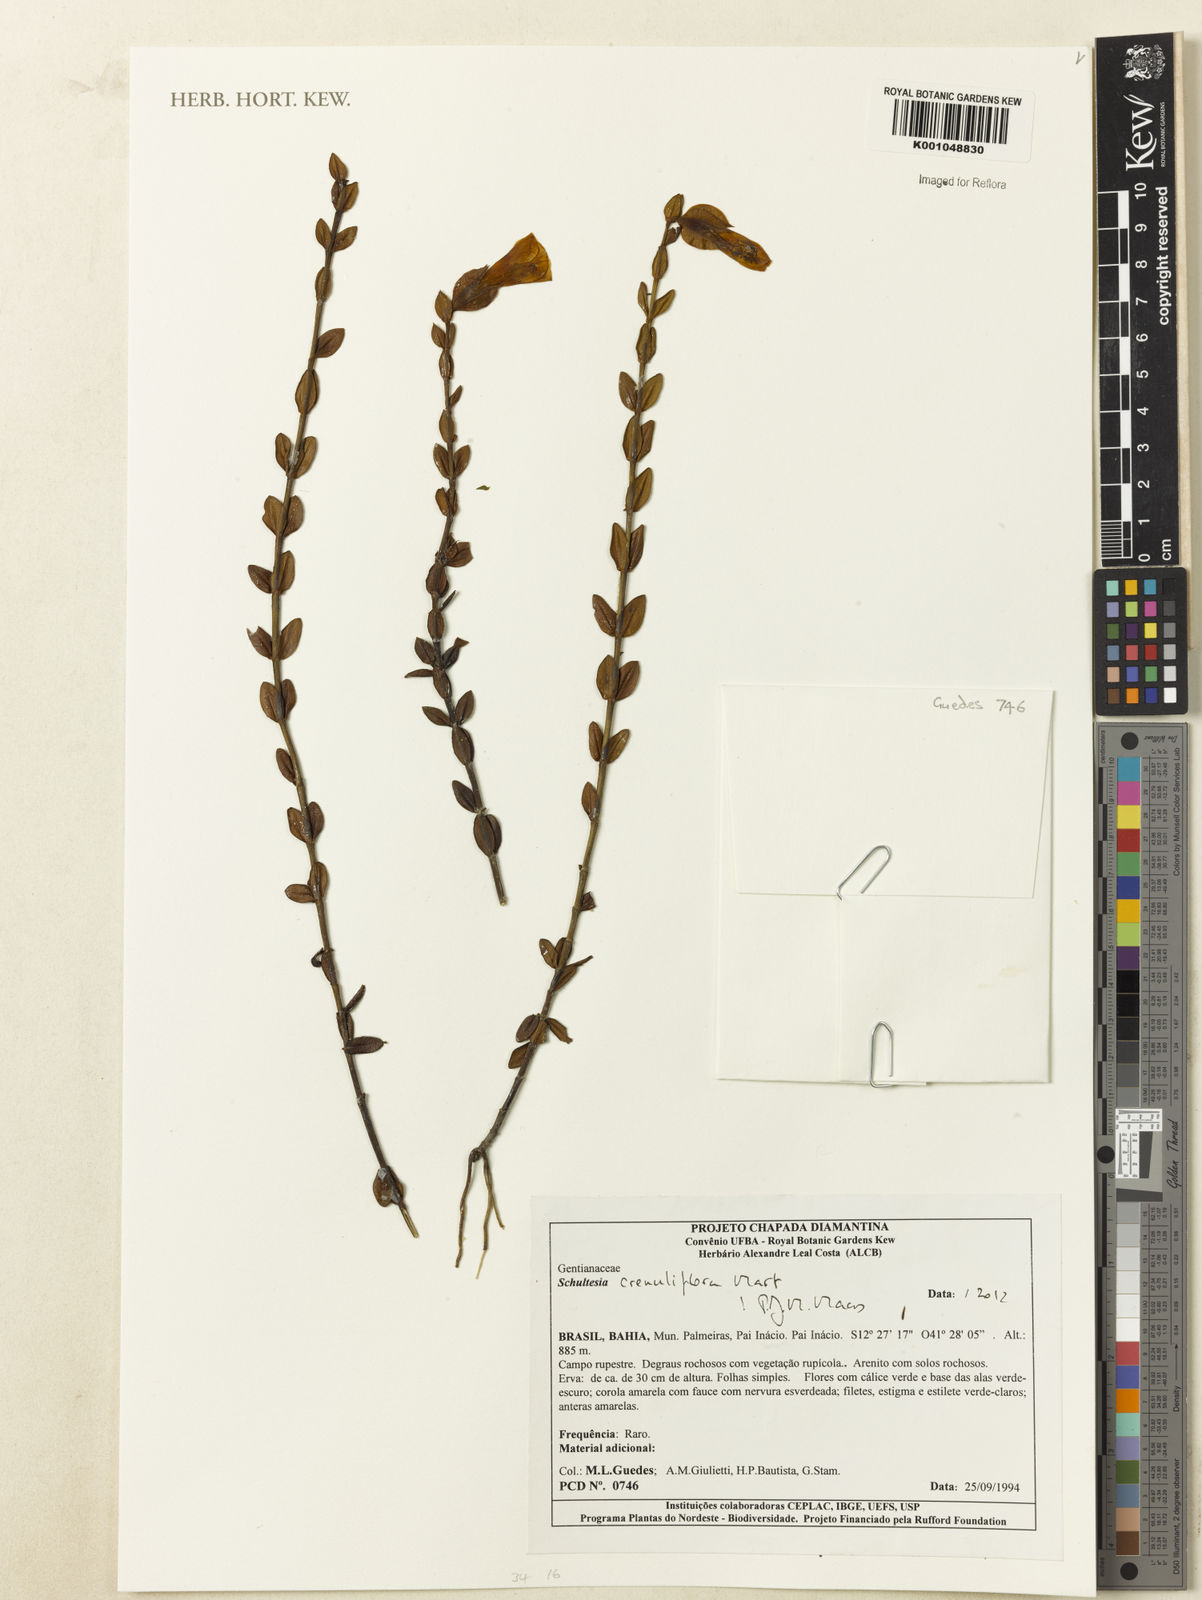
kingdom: Plantae
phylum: Tracheophyta
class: Magnoliopsida
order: Gentianales
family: Gentianaceae
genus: Schultesia
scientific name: Schultesia crenuliflora
